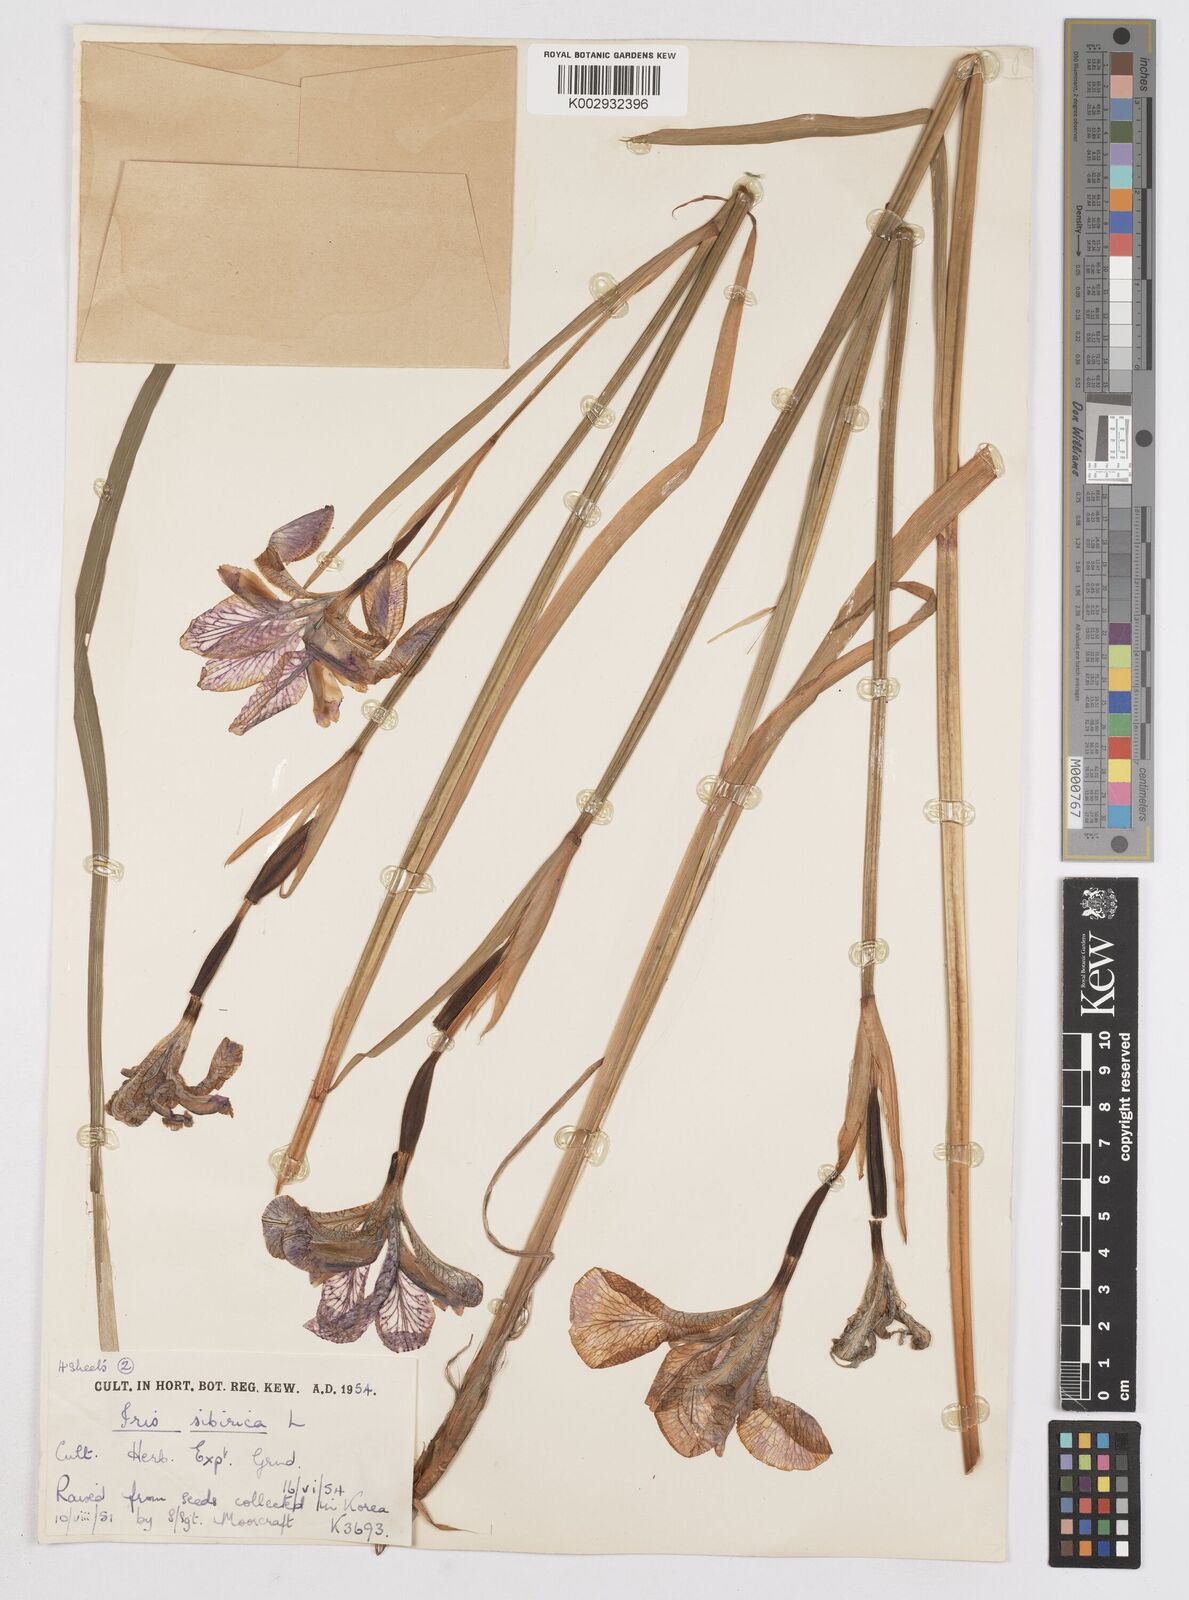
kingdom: Plantae
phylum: Tracheophyta
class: Liliopsida
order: Asparagales
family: Iridaceae
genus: Iris
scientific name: Iris sibirica
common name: Siberian iris
